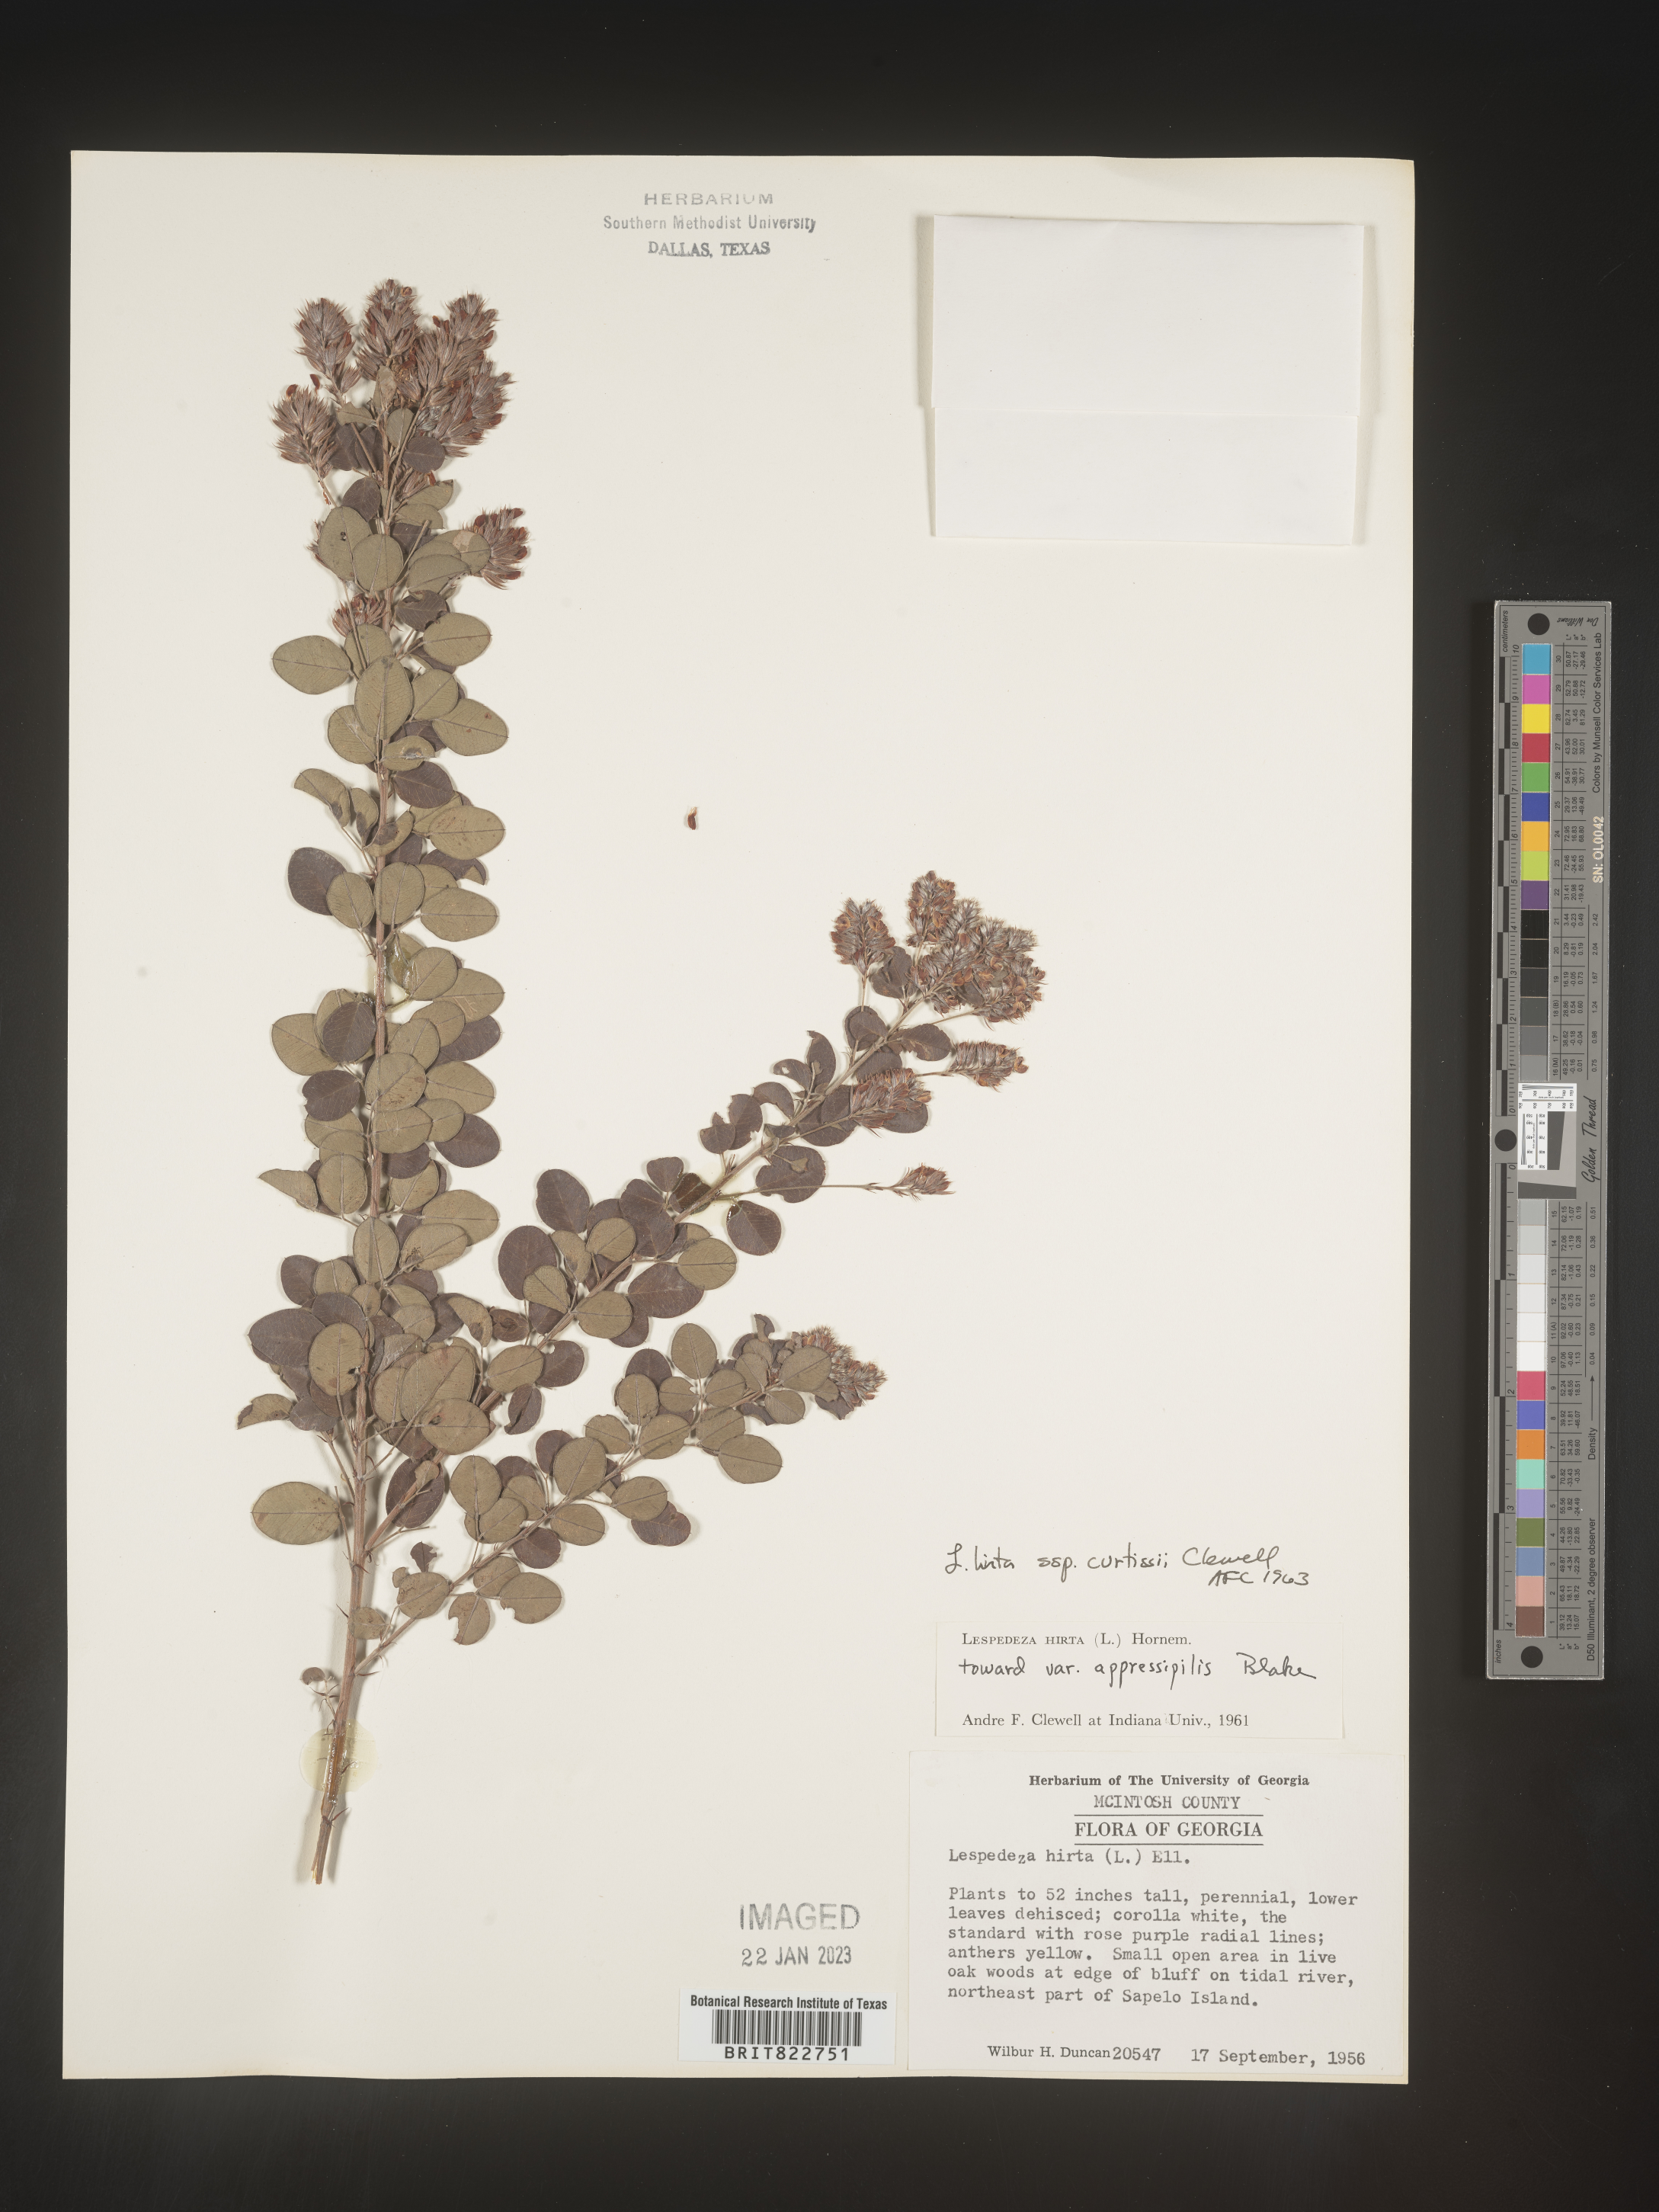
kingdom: Plantae
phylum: Tracheophyta
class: Magnoliopsida
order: Fabales
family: Fabaceae
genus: Lespedeza
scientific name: Lespedeza hirta
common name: Hairy lespedeza
